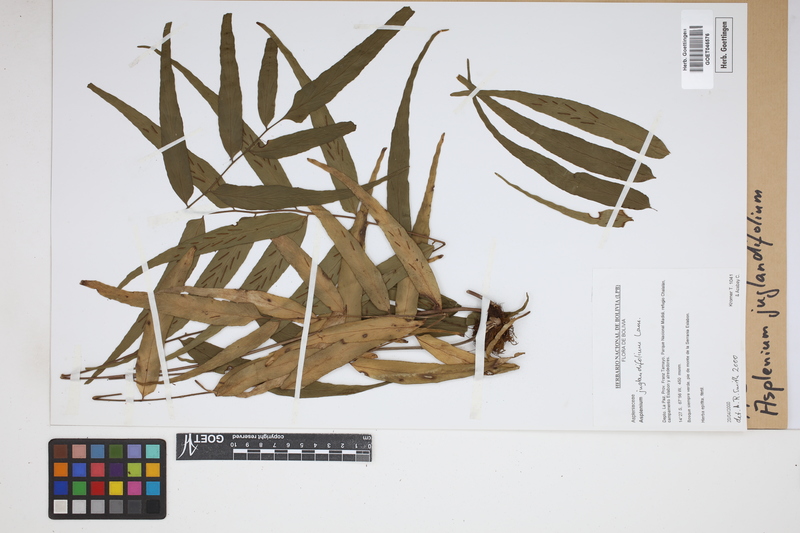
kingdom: Plantae
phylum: Tracheophyta
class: Polypodiopsida
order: Polypodiales
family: Aspleniaceae
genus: Asplenium
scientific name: Asplenium juglandifolium
